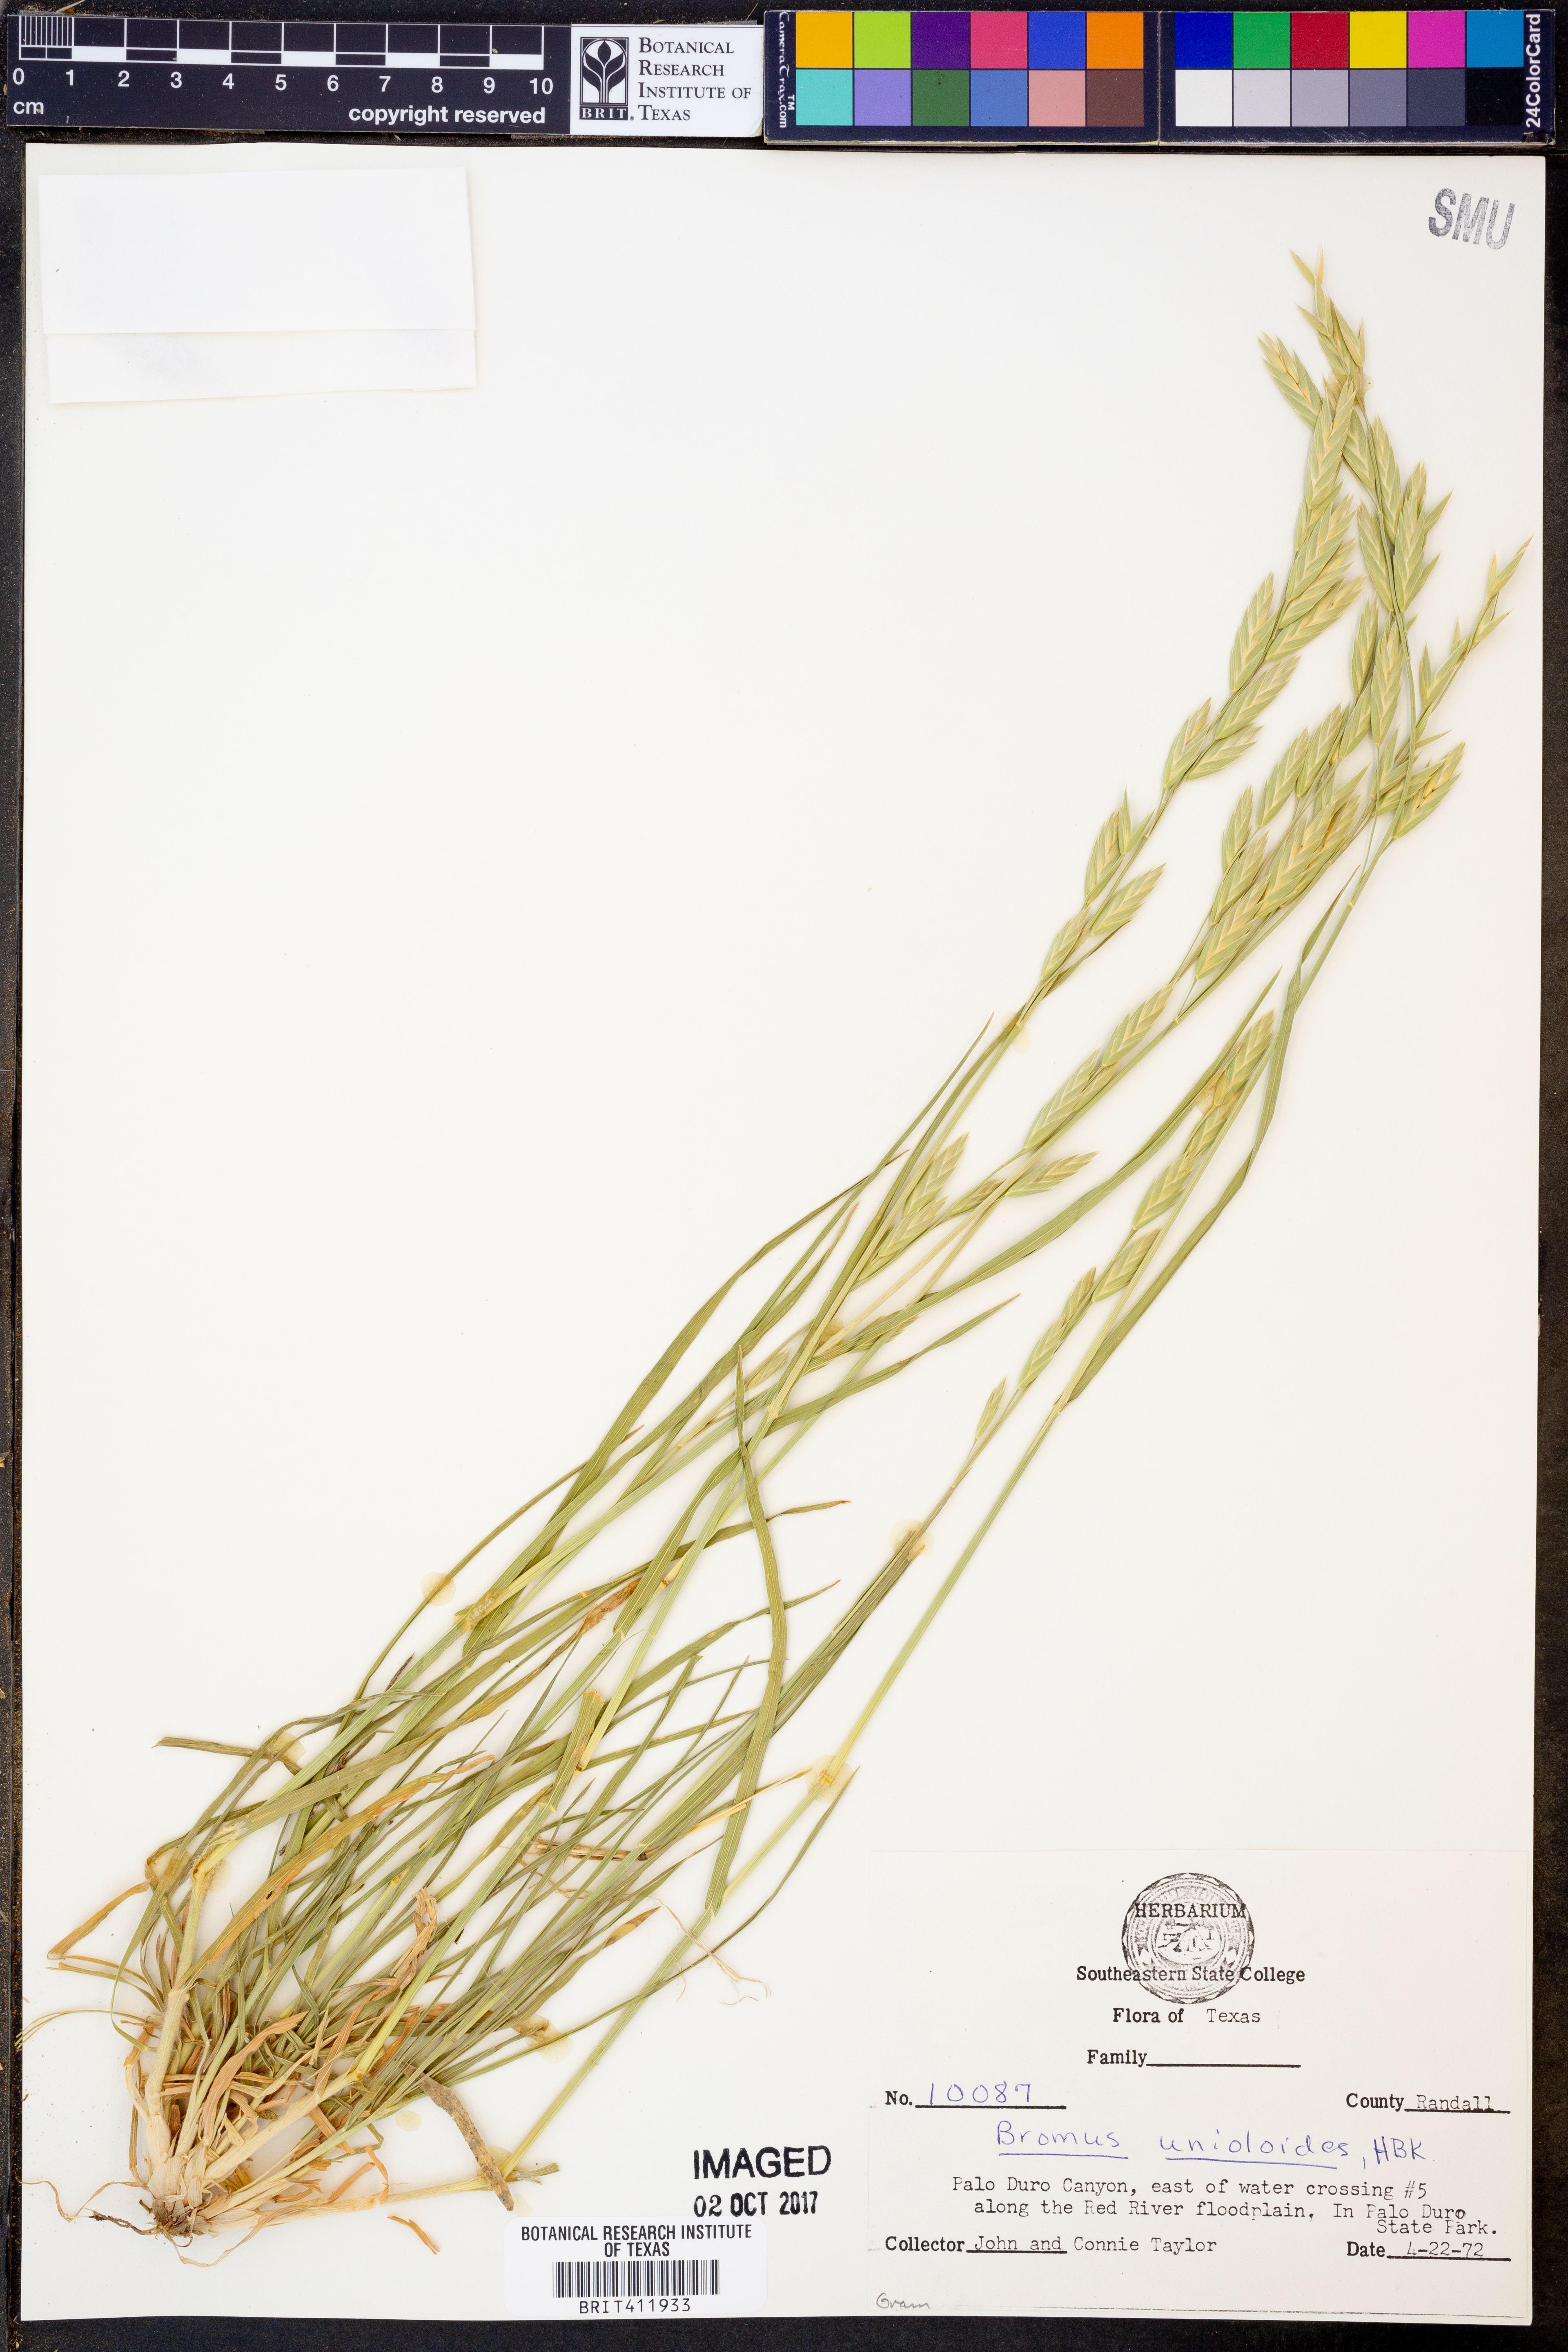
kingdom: Plantae
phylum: Tracheophyta
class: Liliopsida
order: Poales
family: Poaceae
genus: Bromus
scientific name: Bromus catharticus
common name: Rescuegrass
